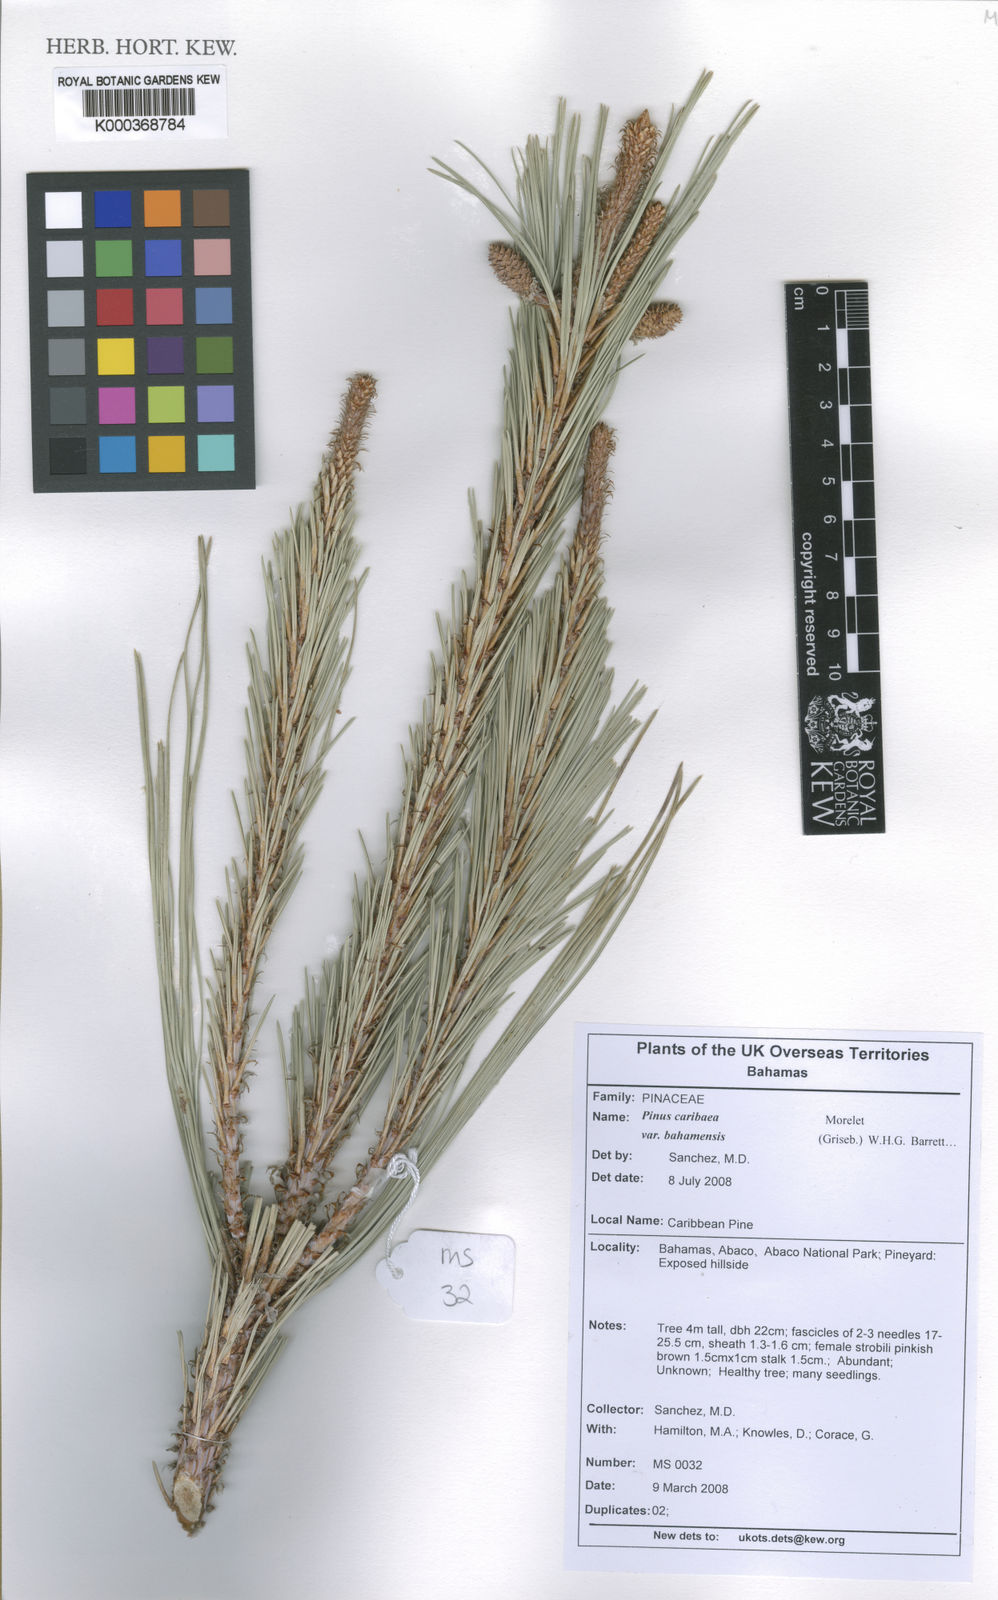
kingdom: Plantae
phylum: Tracheophyta
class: Pinopsida
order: Pinales
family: Pinaceae
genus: Pinus
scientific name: Pinus caribaea
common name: Caribbean pine
